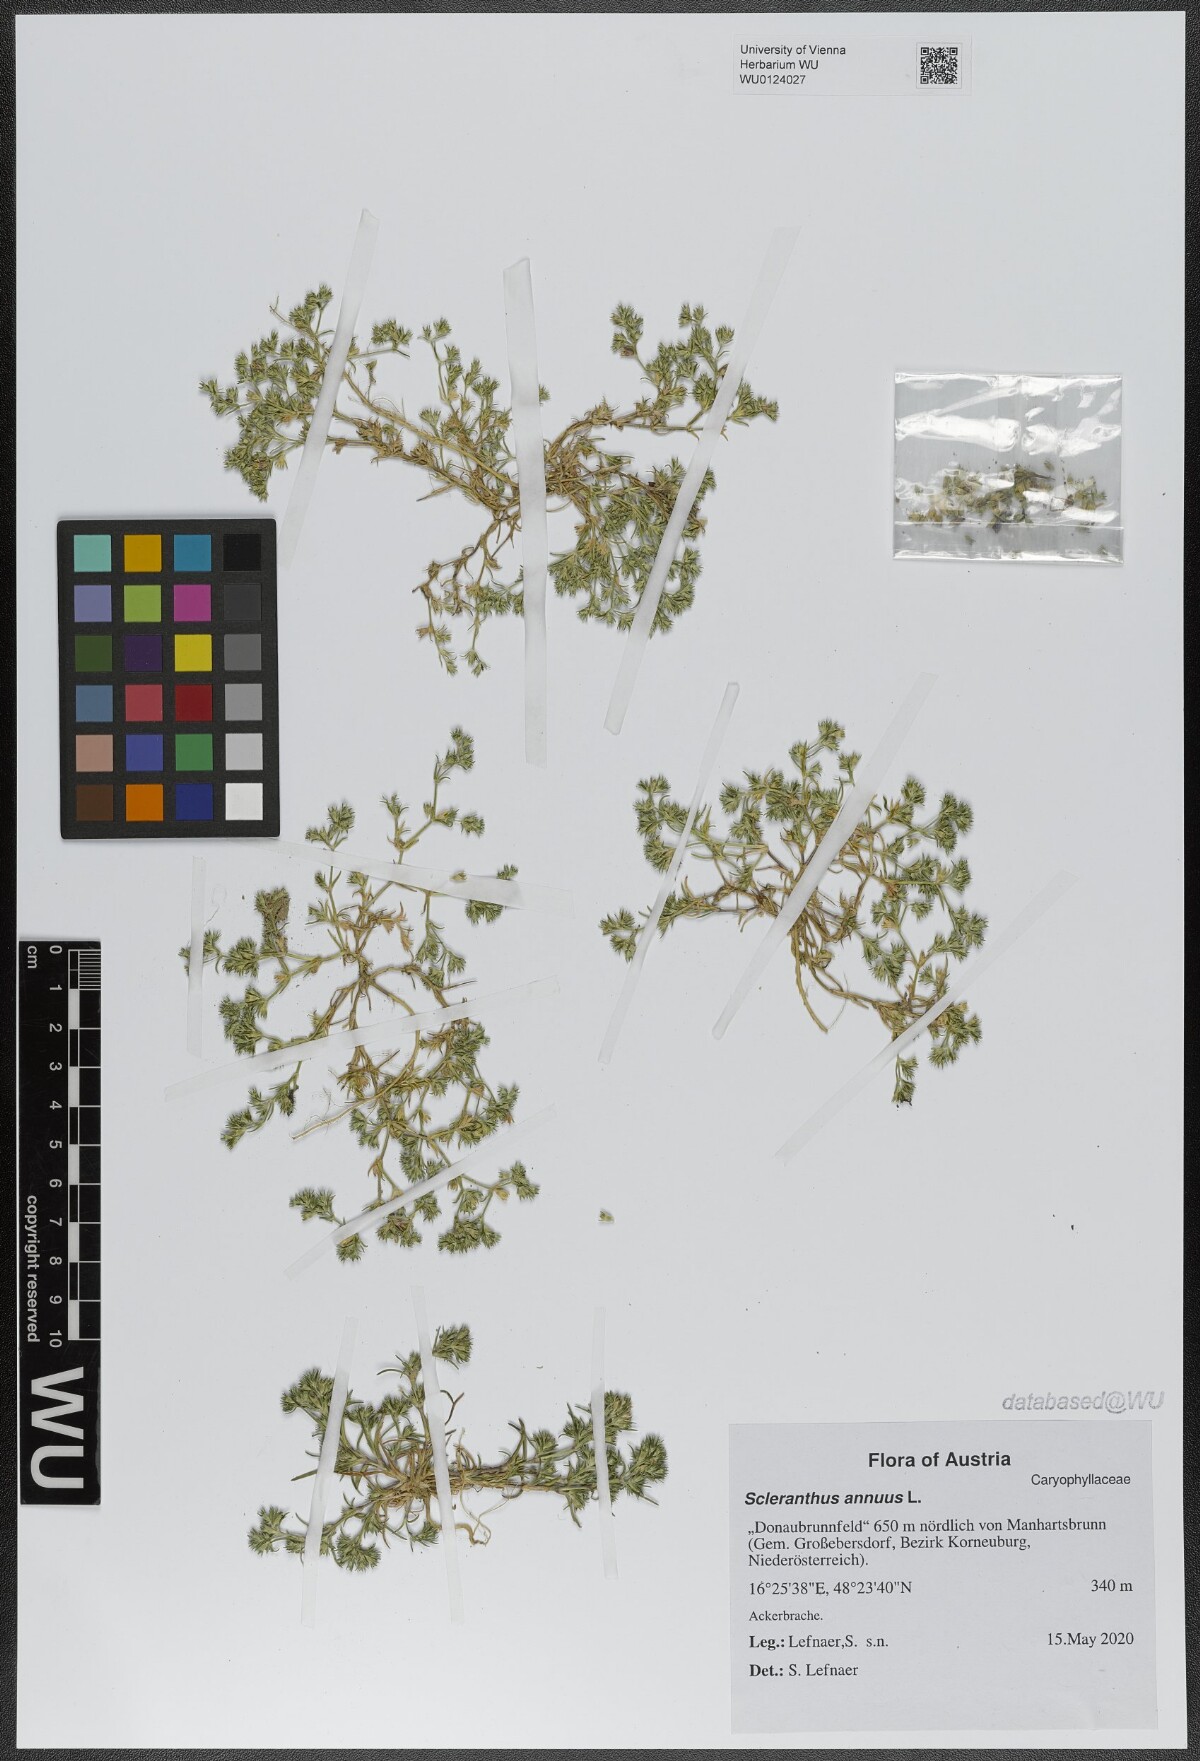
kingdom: Plantae
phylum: Tracheophyta
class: Magnoliopsida
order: Caryophyllales
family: Caryophyllaceae
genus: Scleranthus
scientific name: Scleranthus annuus
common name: Annual knawel
